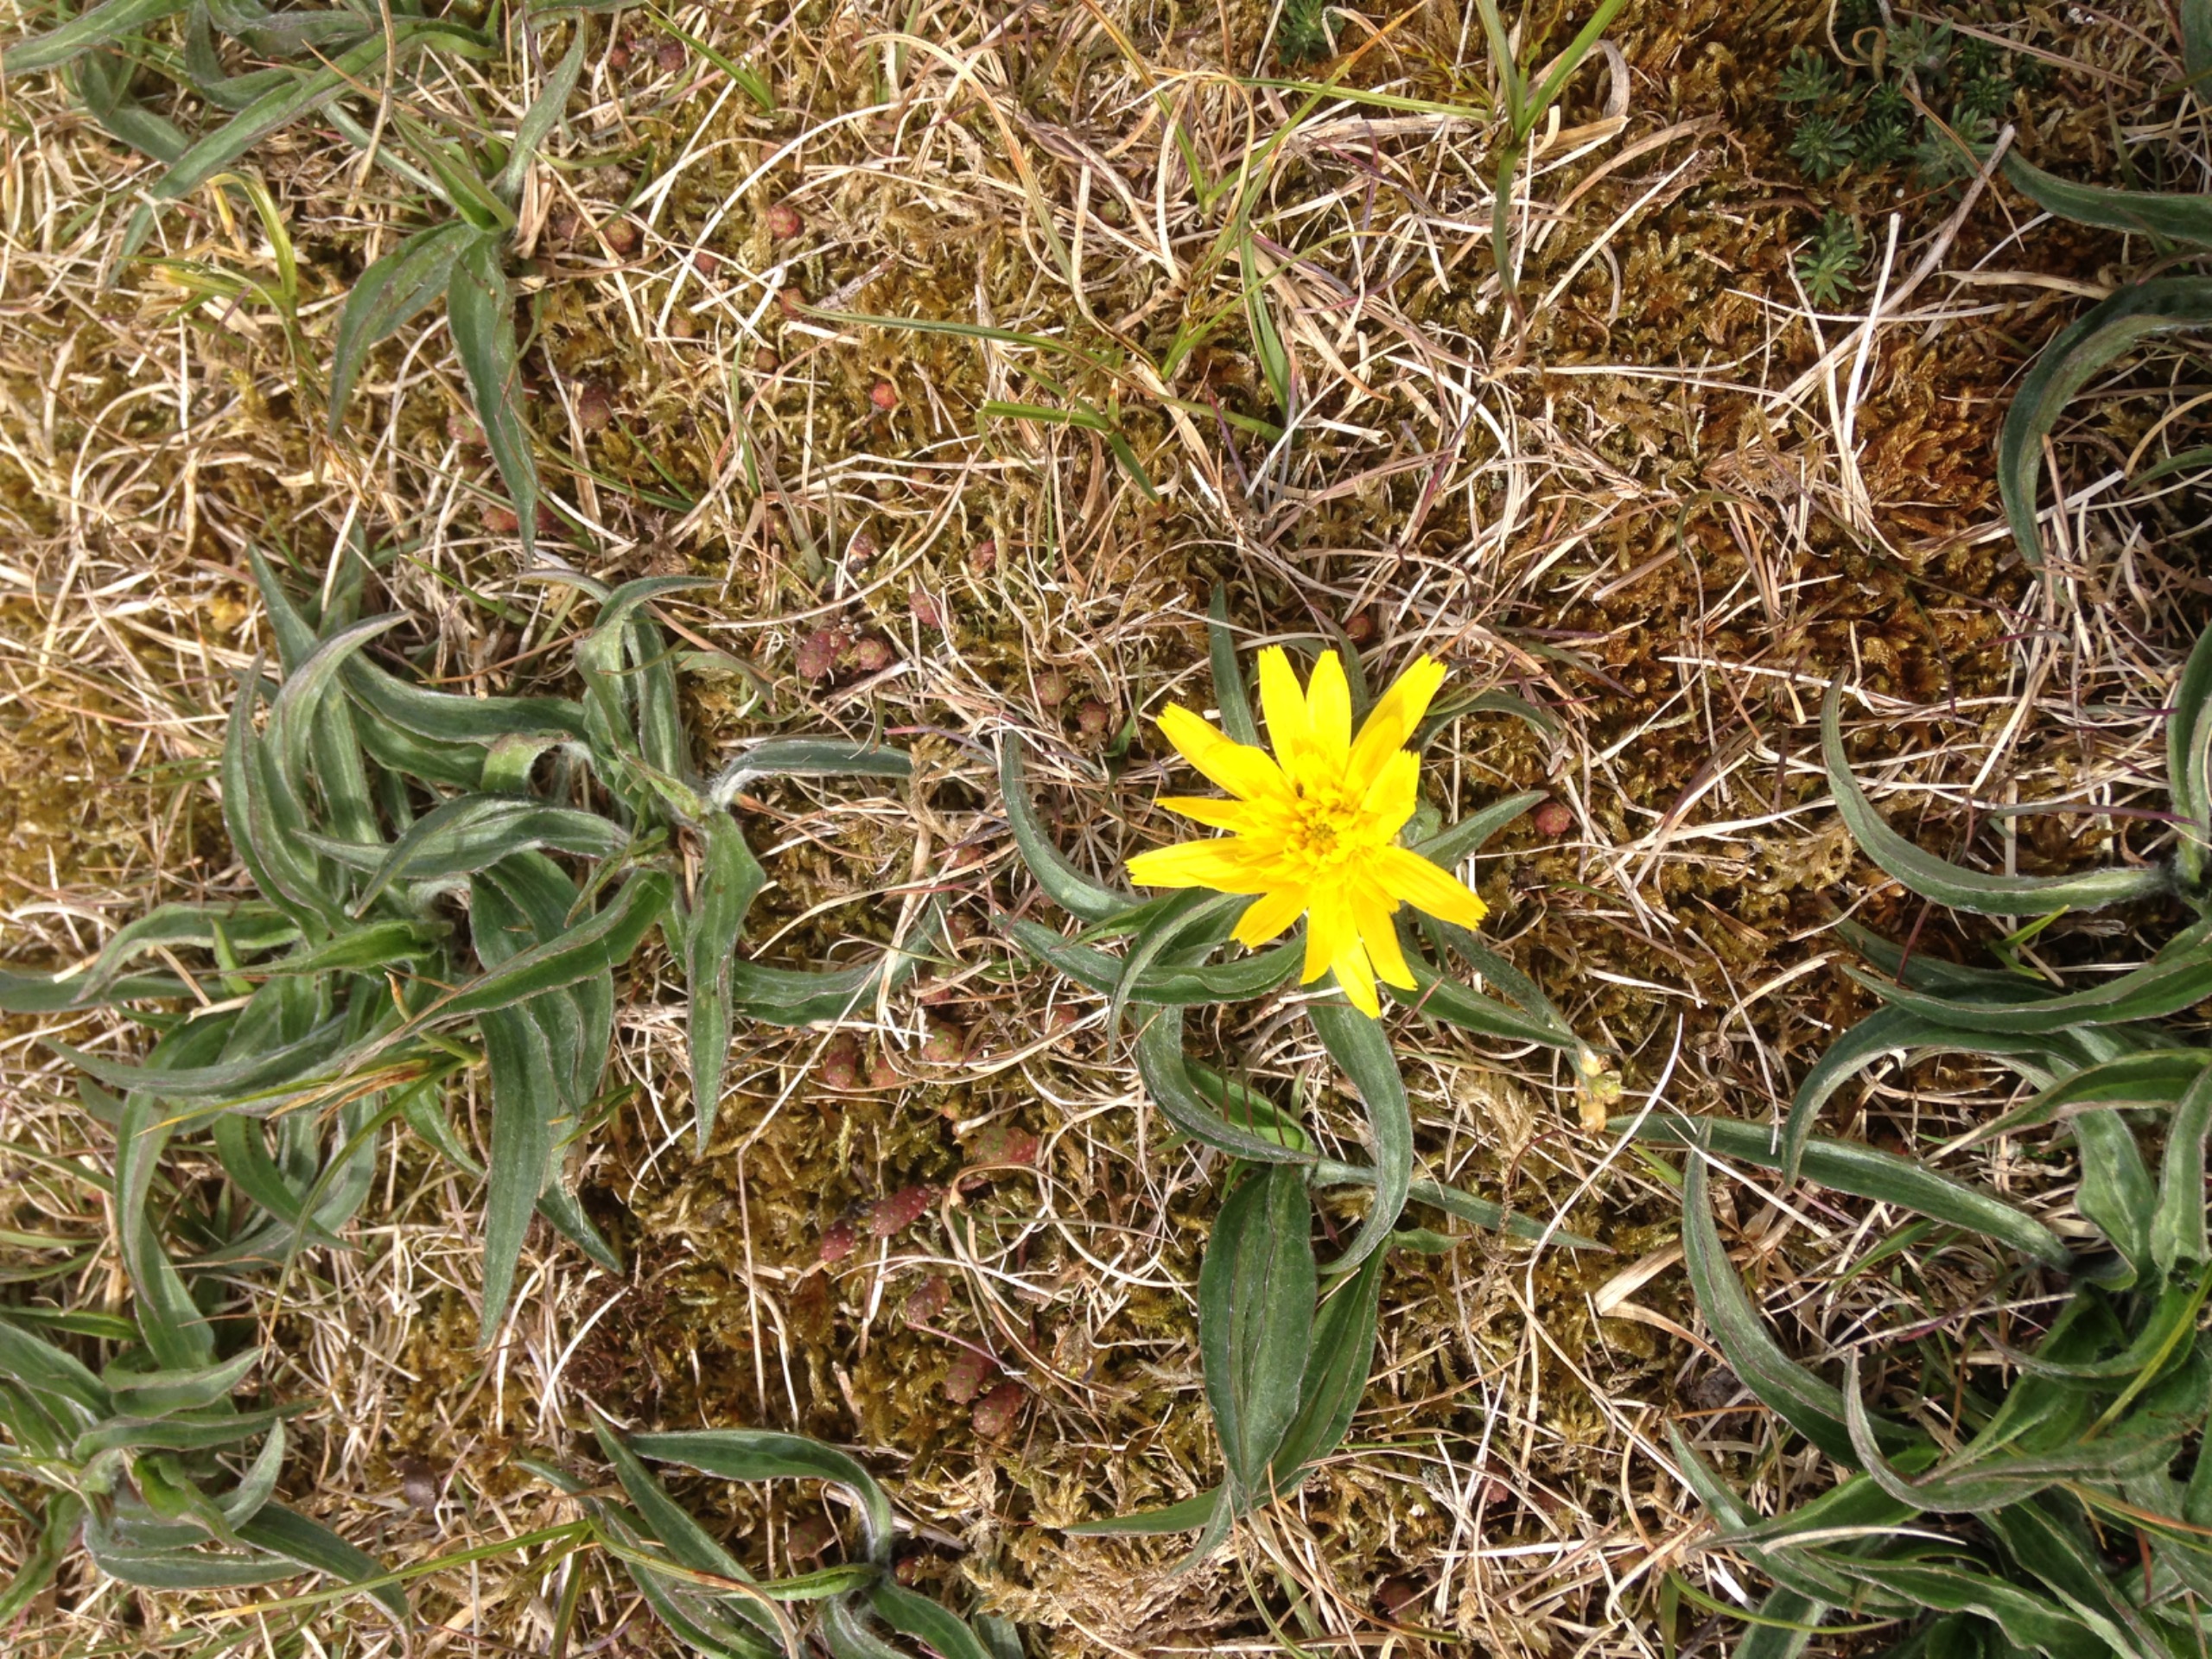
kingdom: Plantae
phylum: Tracheophyta
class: Magnoliopsida
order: Asterales
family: Asteraceae
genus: Scorzonera
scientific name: Scorzonera humilis
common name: Lav skorsoner
